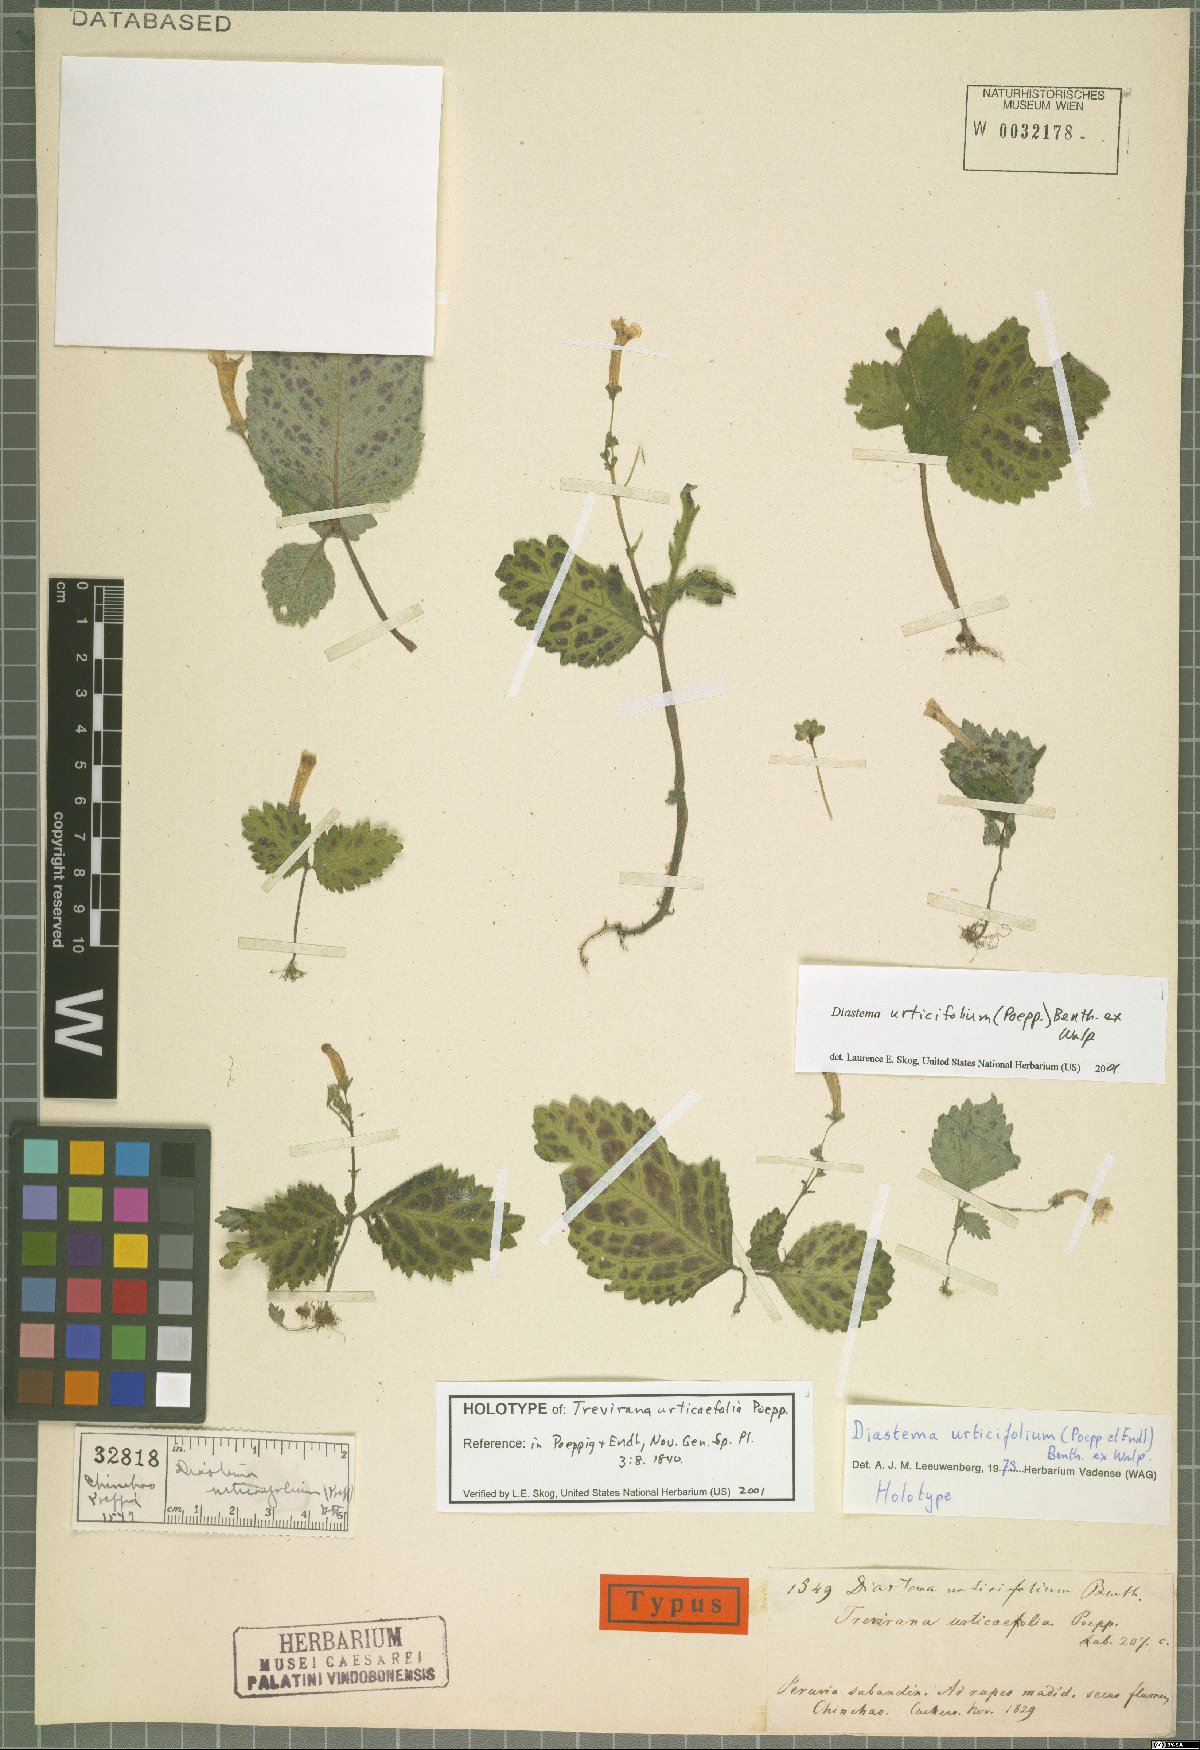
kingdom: Plantae
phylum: Tracheophyta
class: Magnoliopsida
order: Lamiales
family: Gesneriaceae
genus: Diastema
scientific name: Diastema urticifolium
